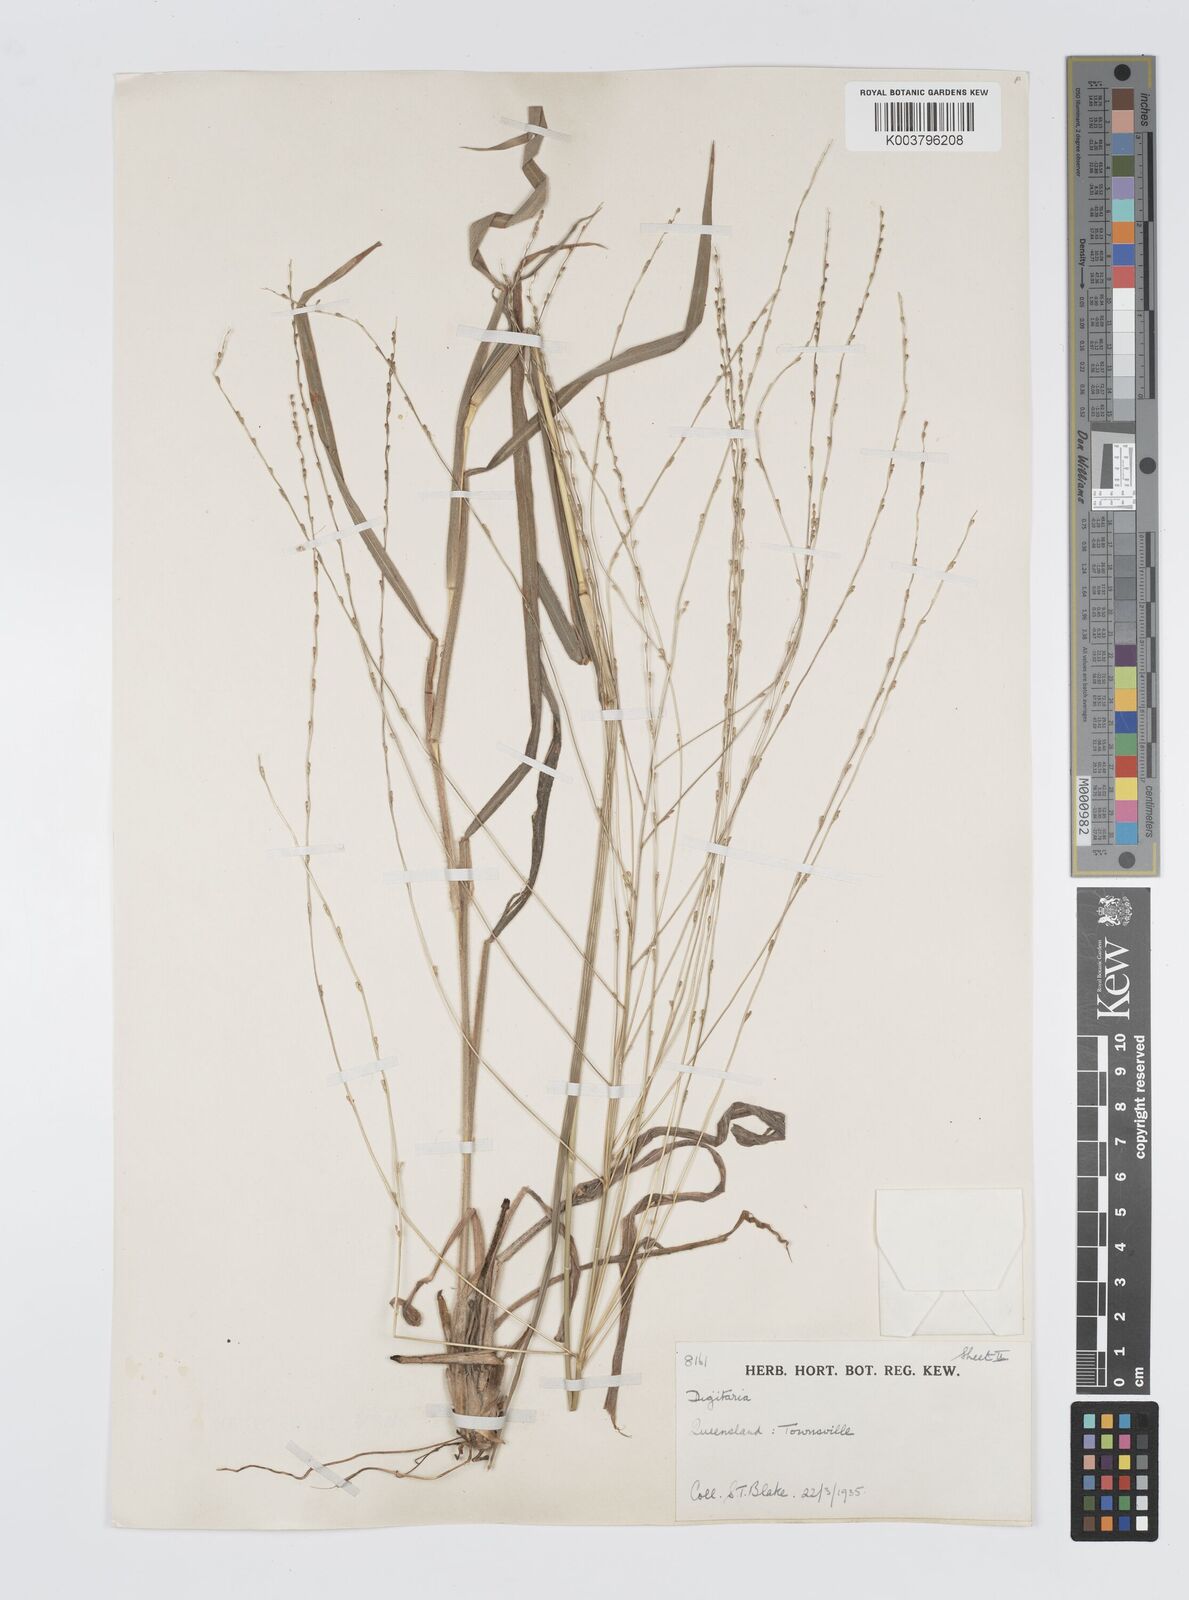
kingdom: Plantae
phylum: Tracheophyta
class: Liliopsida
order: Poales
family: Poaceae
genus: Digitaria
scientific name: Digitaria ammophila
